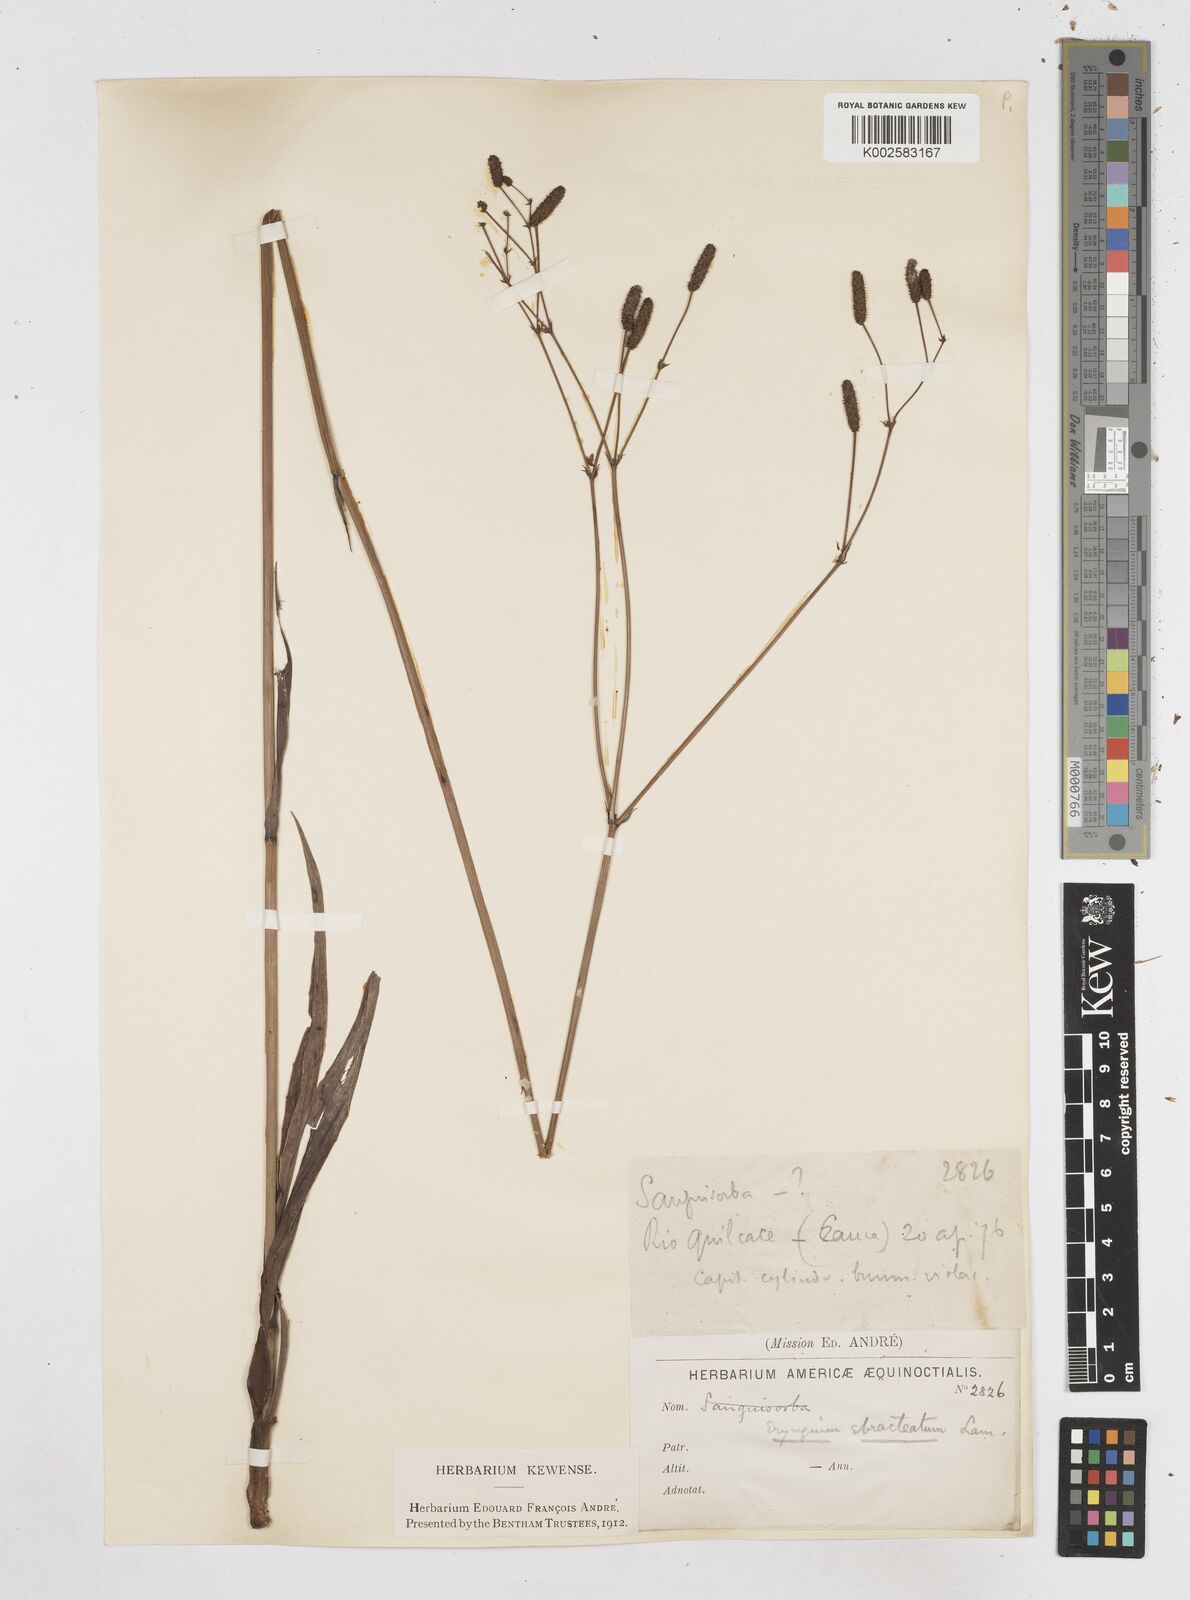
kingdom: Plantae
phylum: Tracheophyta
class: Magnoliopsida
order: Apiales
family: Apiaceae
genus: Eryngium
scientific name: Eryngium ebracteatum
